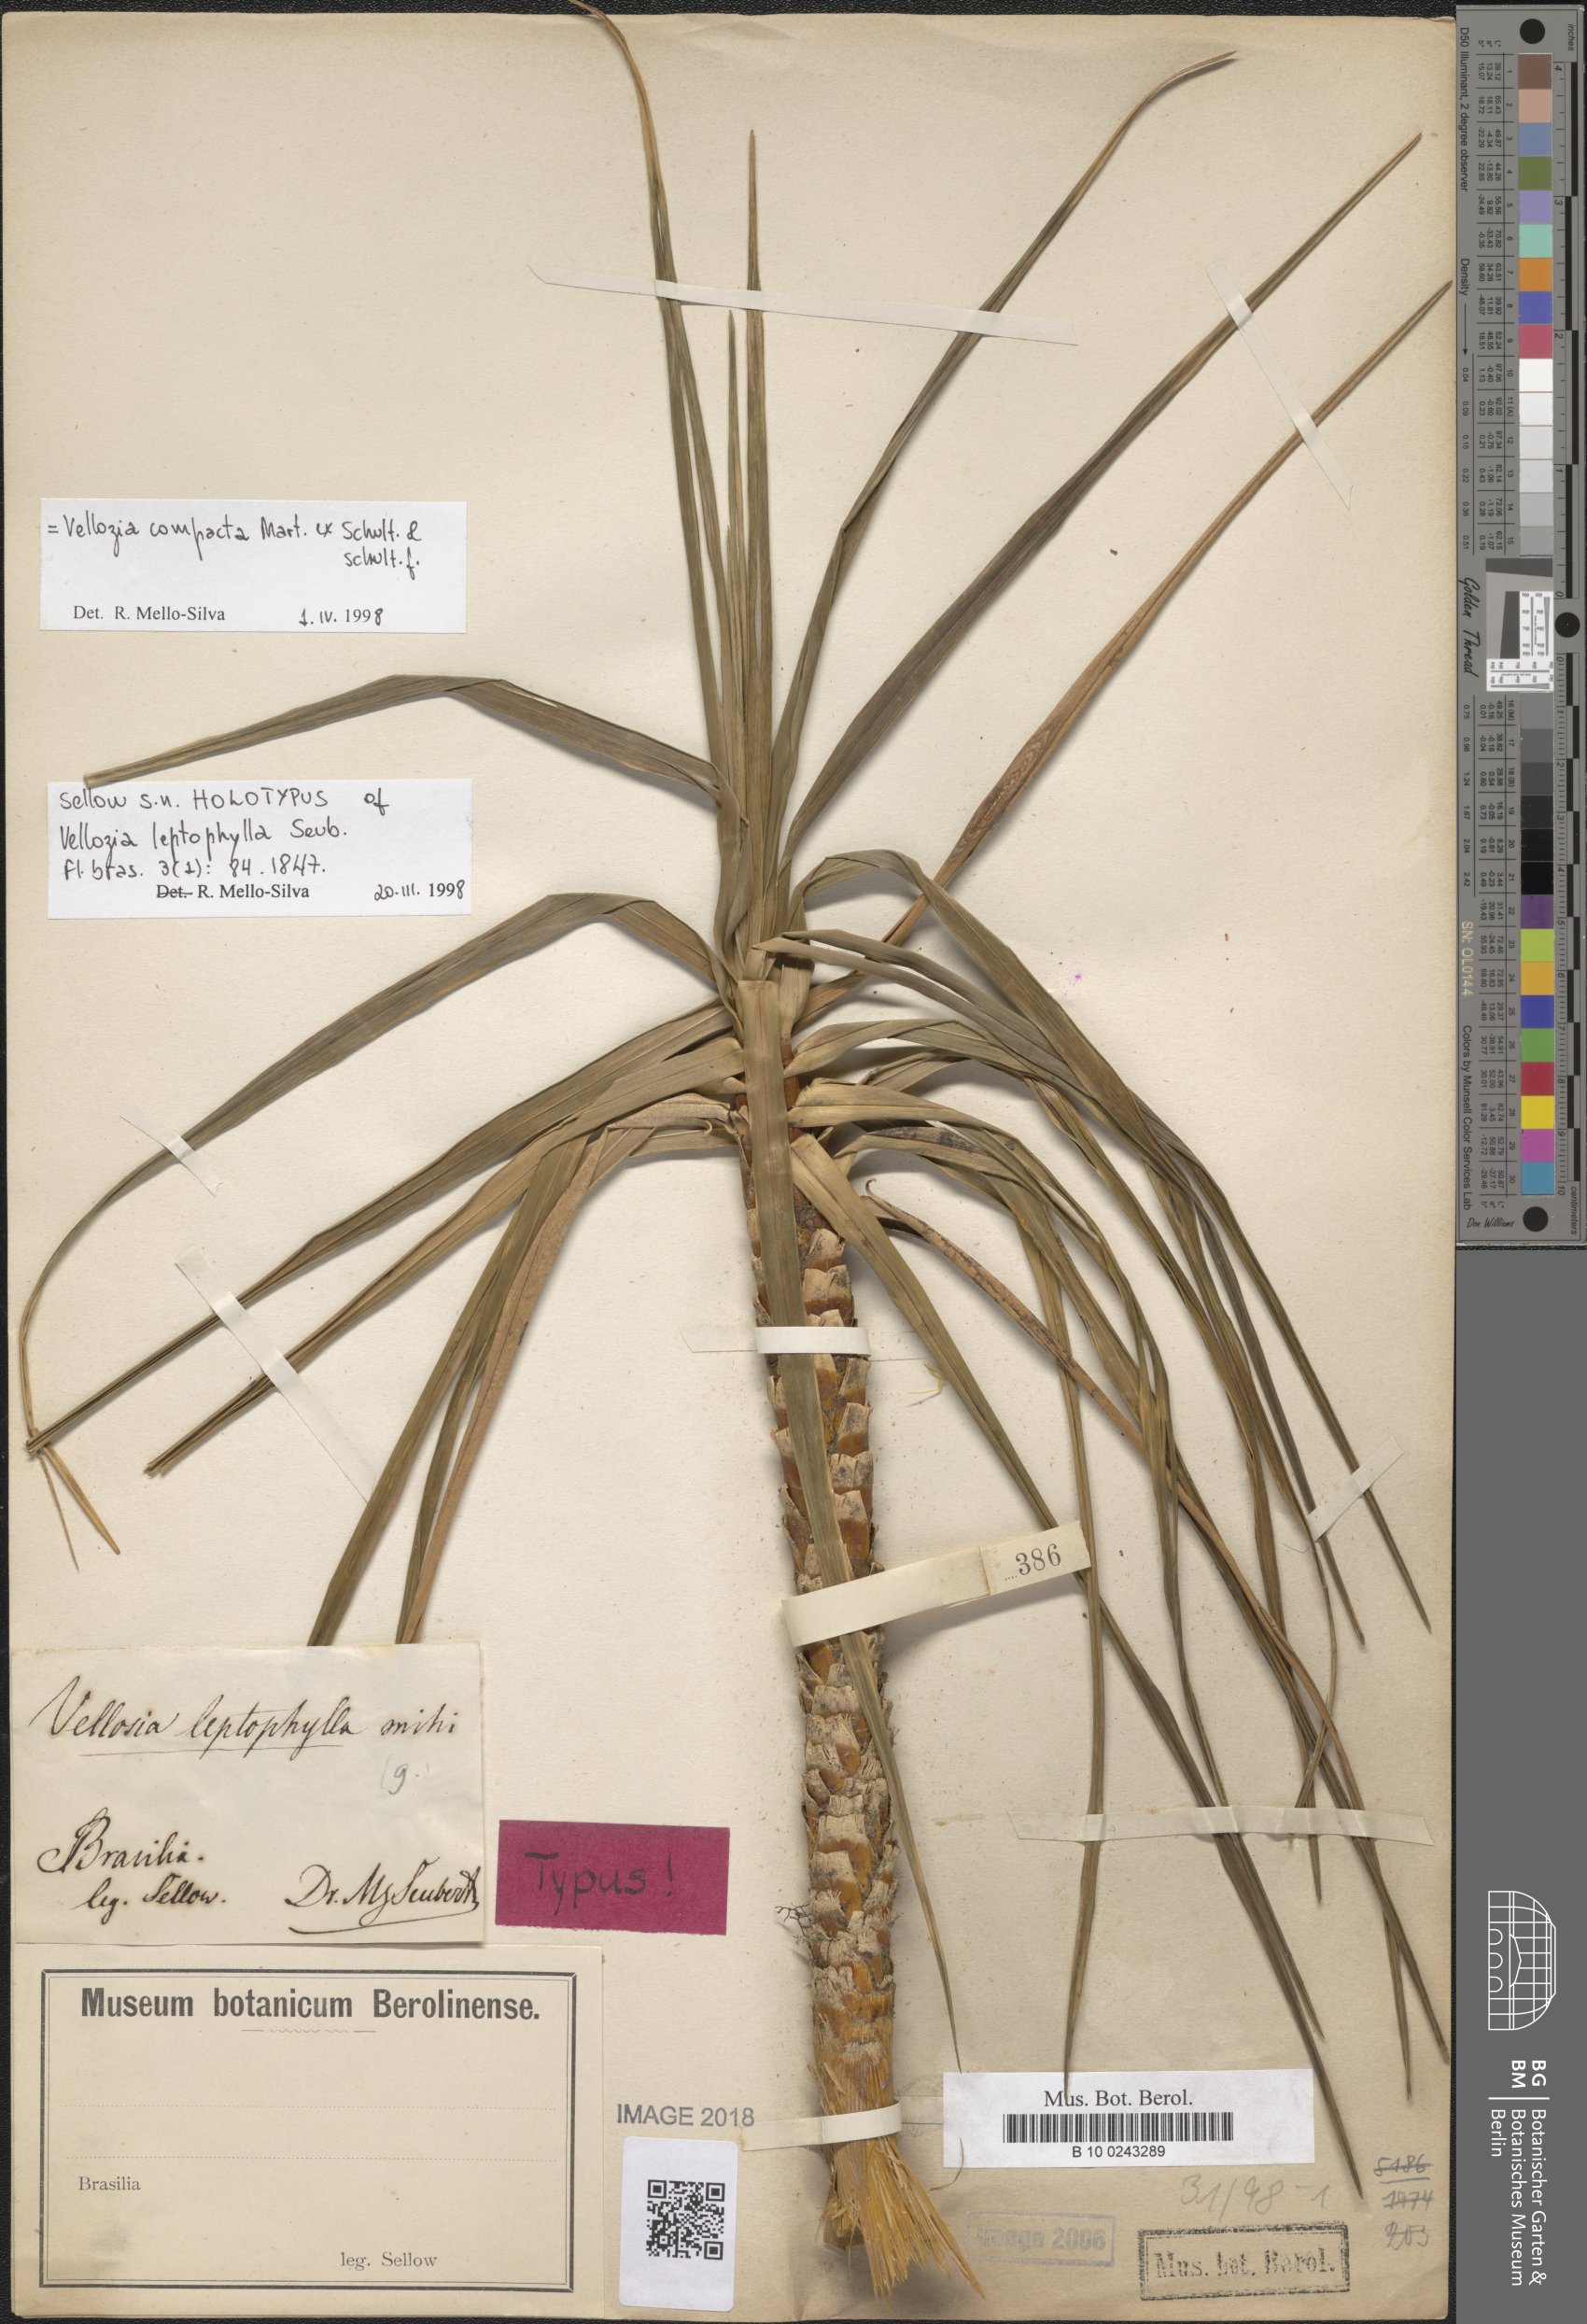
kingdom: Plantae
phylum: Tracheophyta
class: Liliopsida
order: Pandanales
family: Velloziaceae
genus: Vellozia
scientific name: Vellozia compacta
